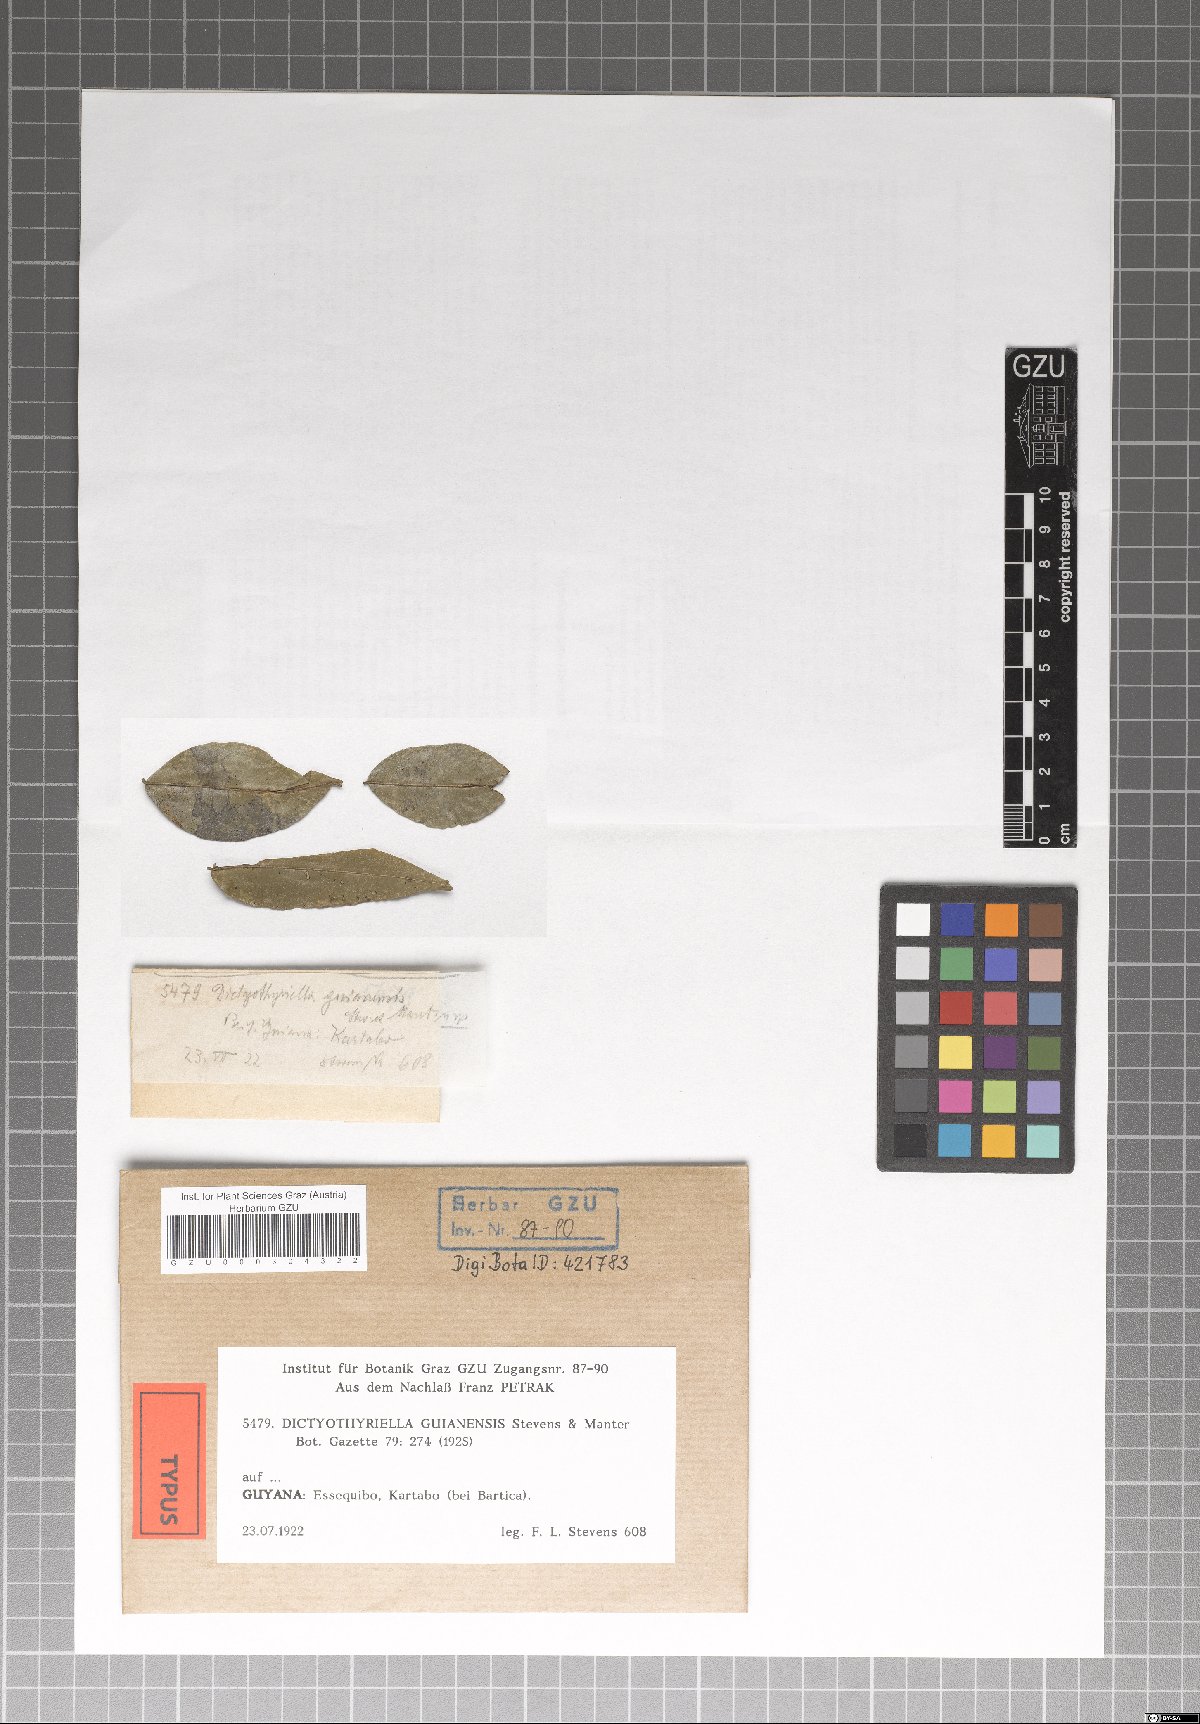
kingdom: Fungi
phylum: Ascomycota
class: Dothideomycetes
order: Microthyriales
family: Micropeltidaceae
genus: Dictyothyriella
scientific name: Dictyothyriella guianensis
